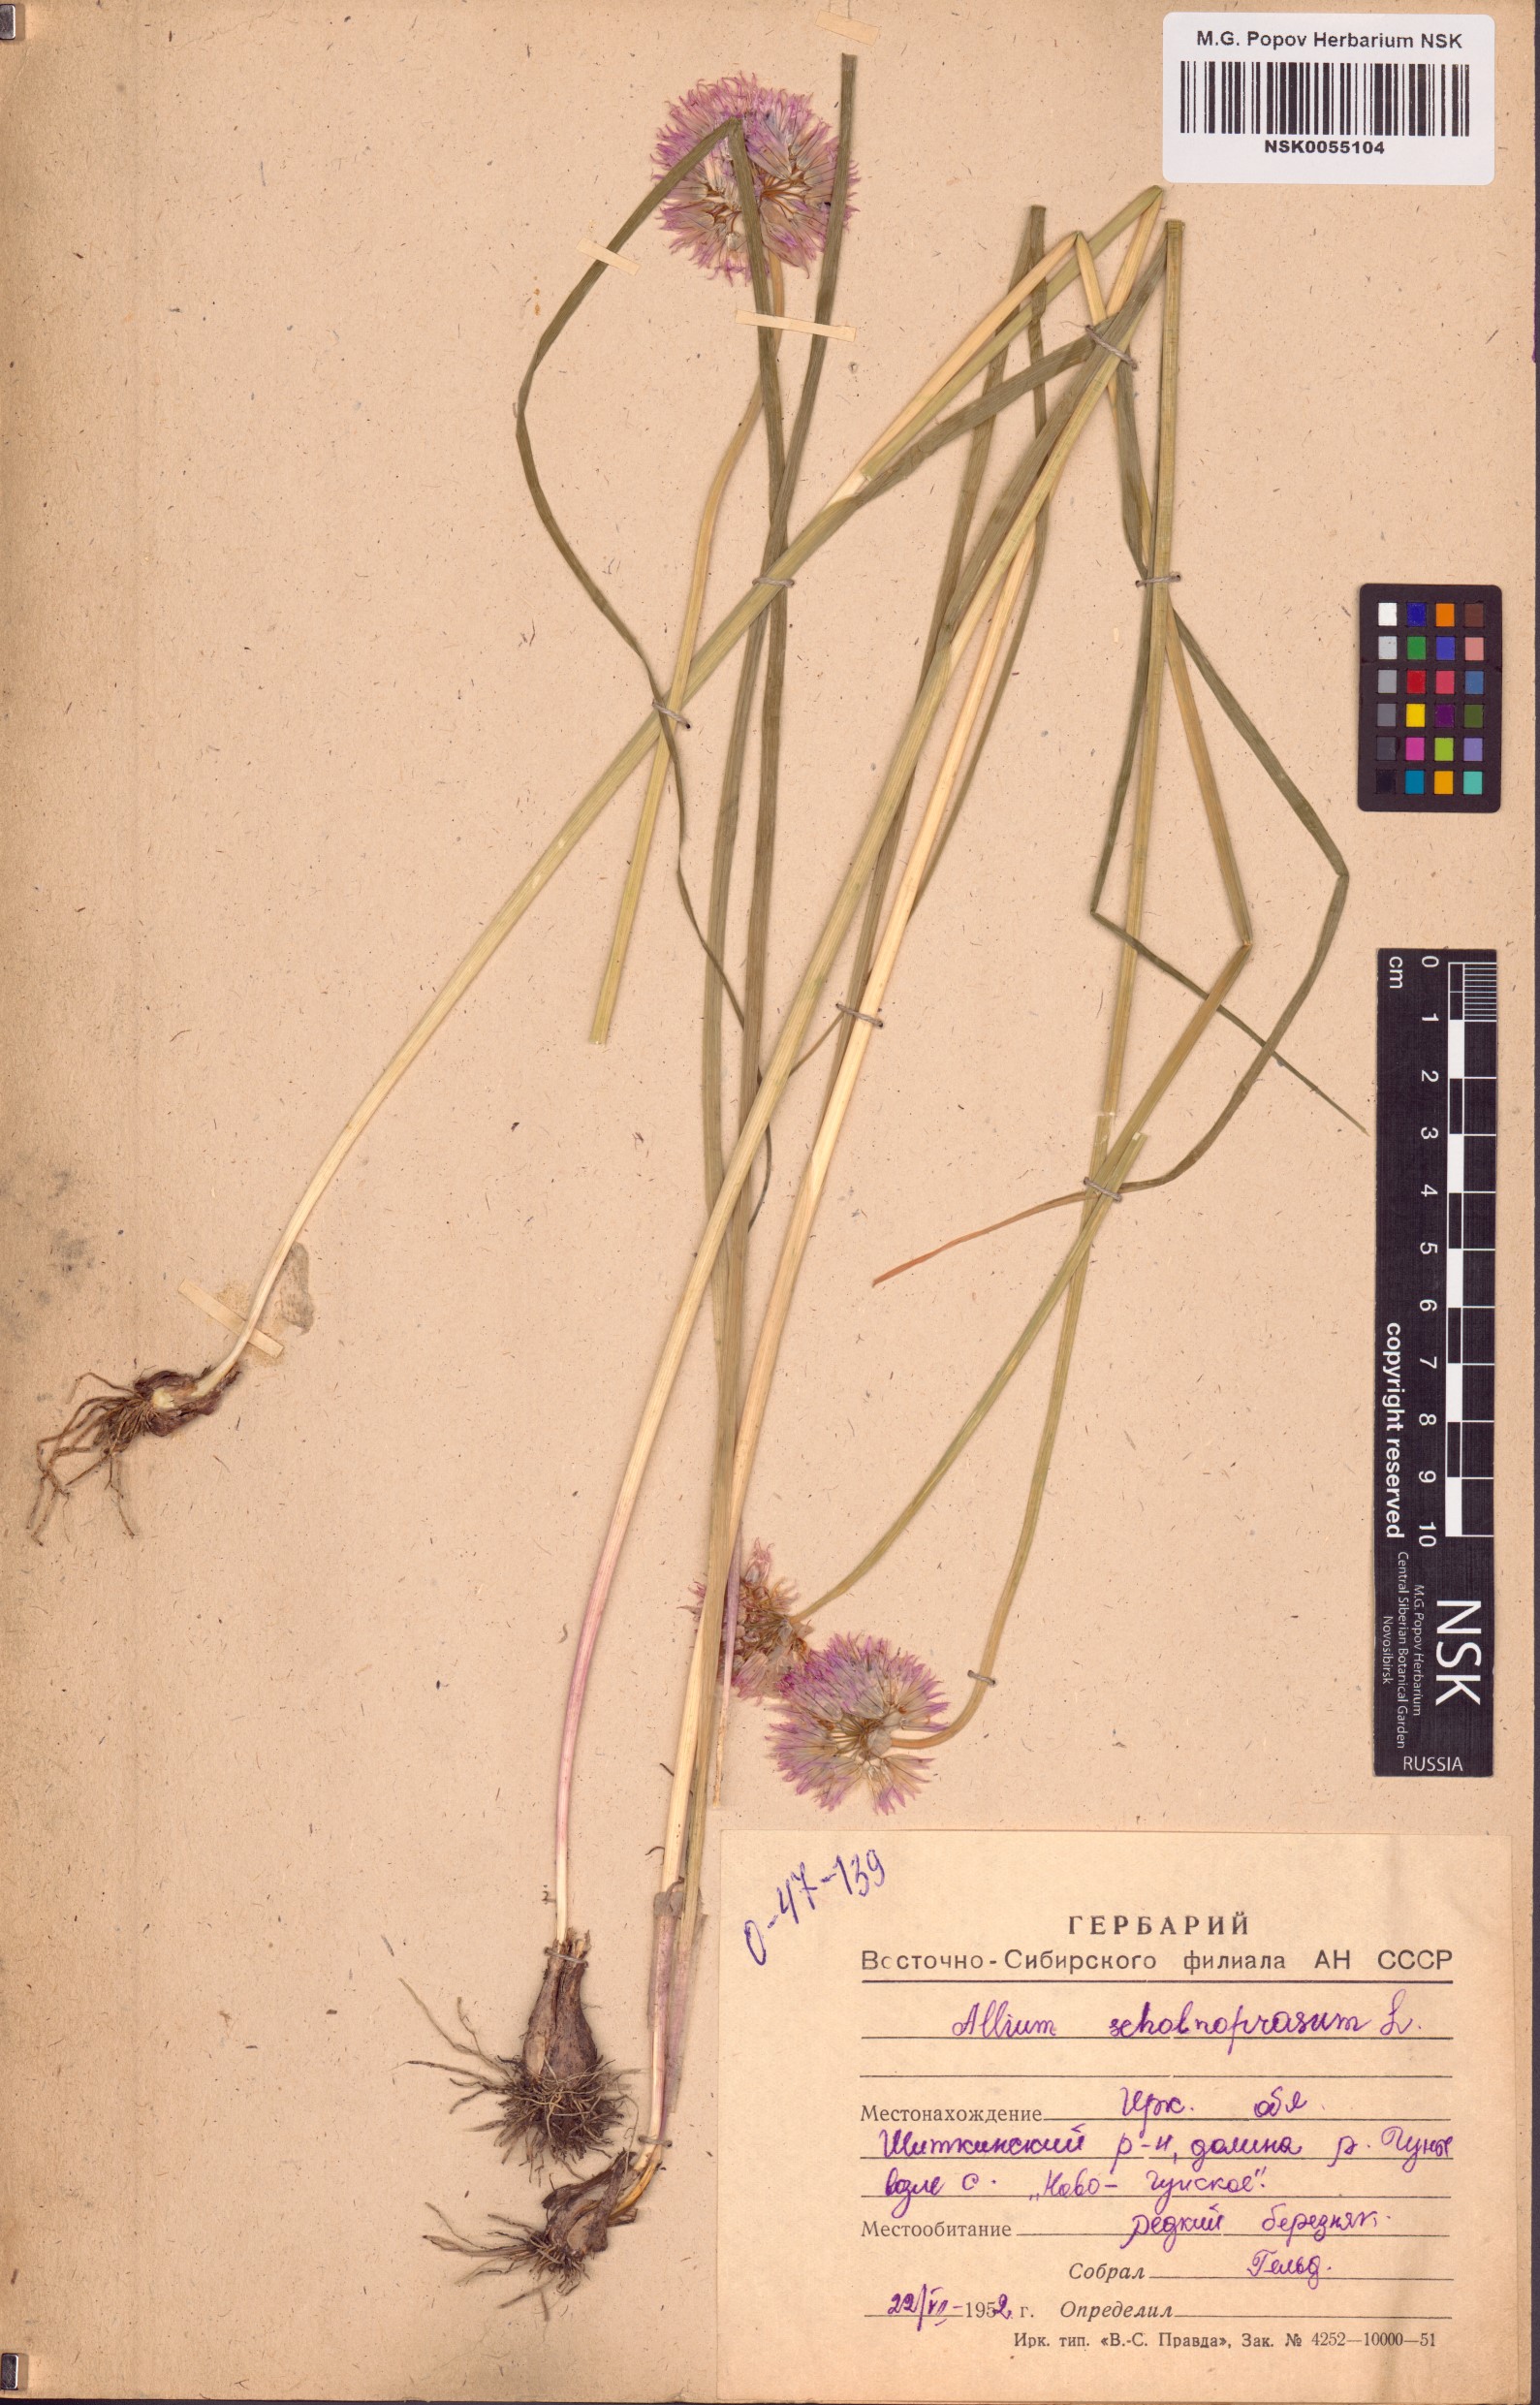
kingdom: Plantae
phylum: Tracheophyta
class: Liliopsida
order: Asparagales
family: Amaryllidaceae
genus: Allium
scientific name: Allium schoenoprasum
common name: Chives
